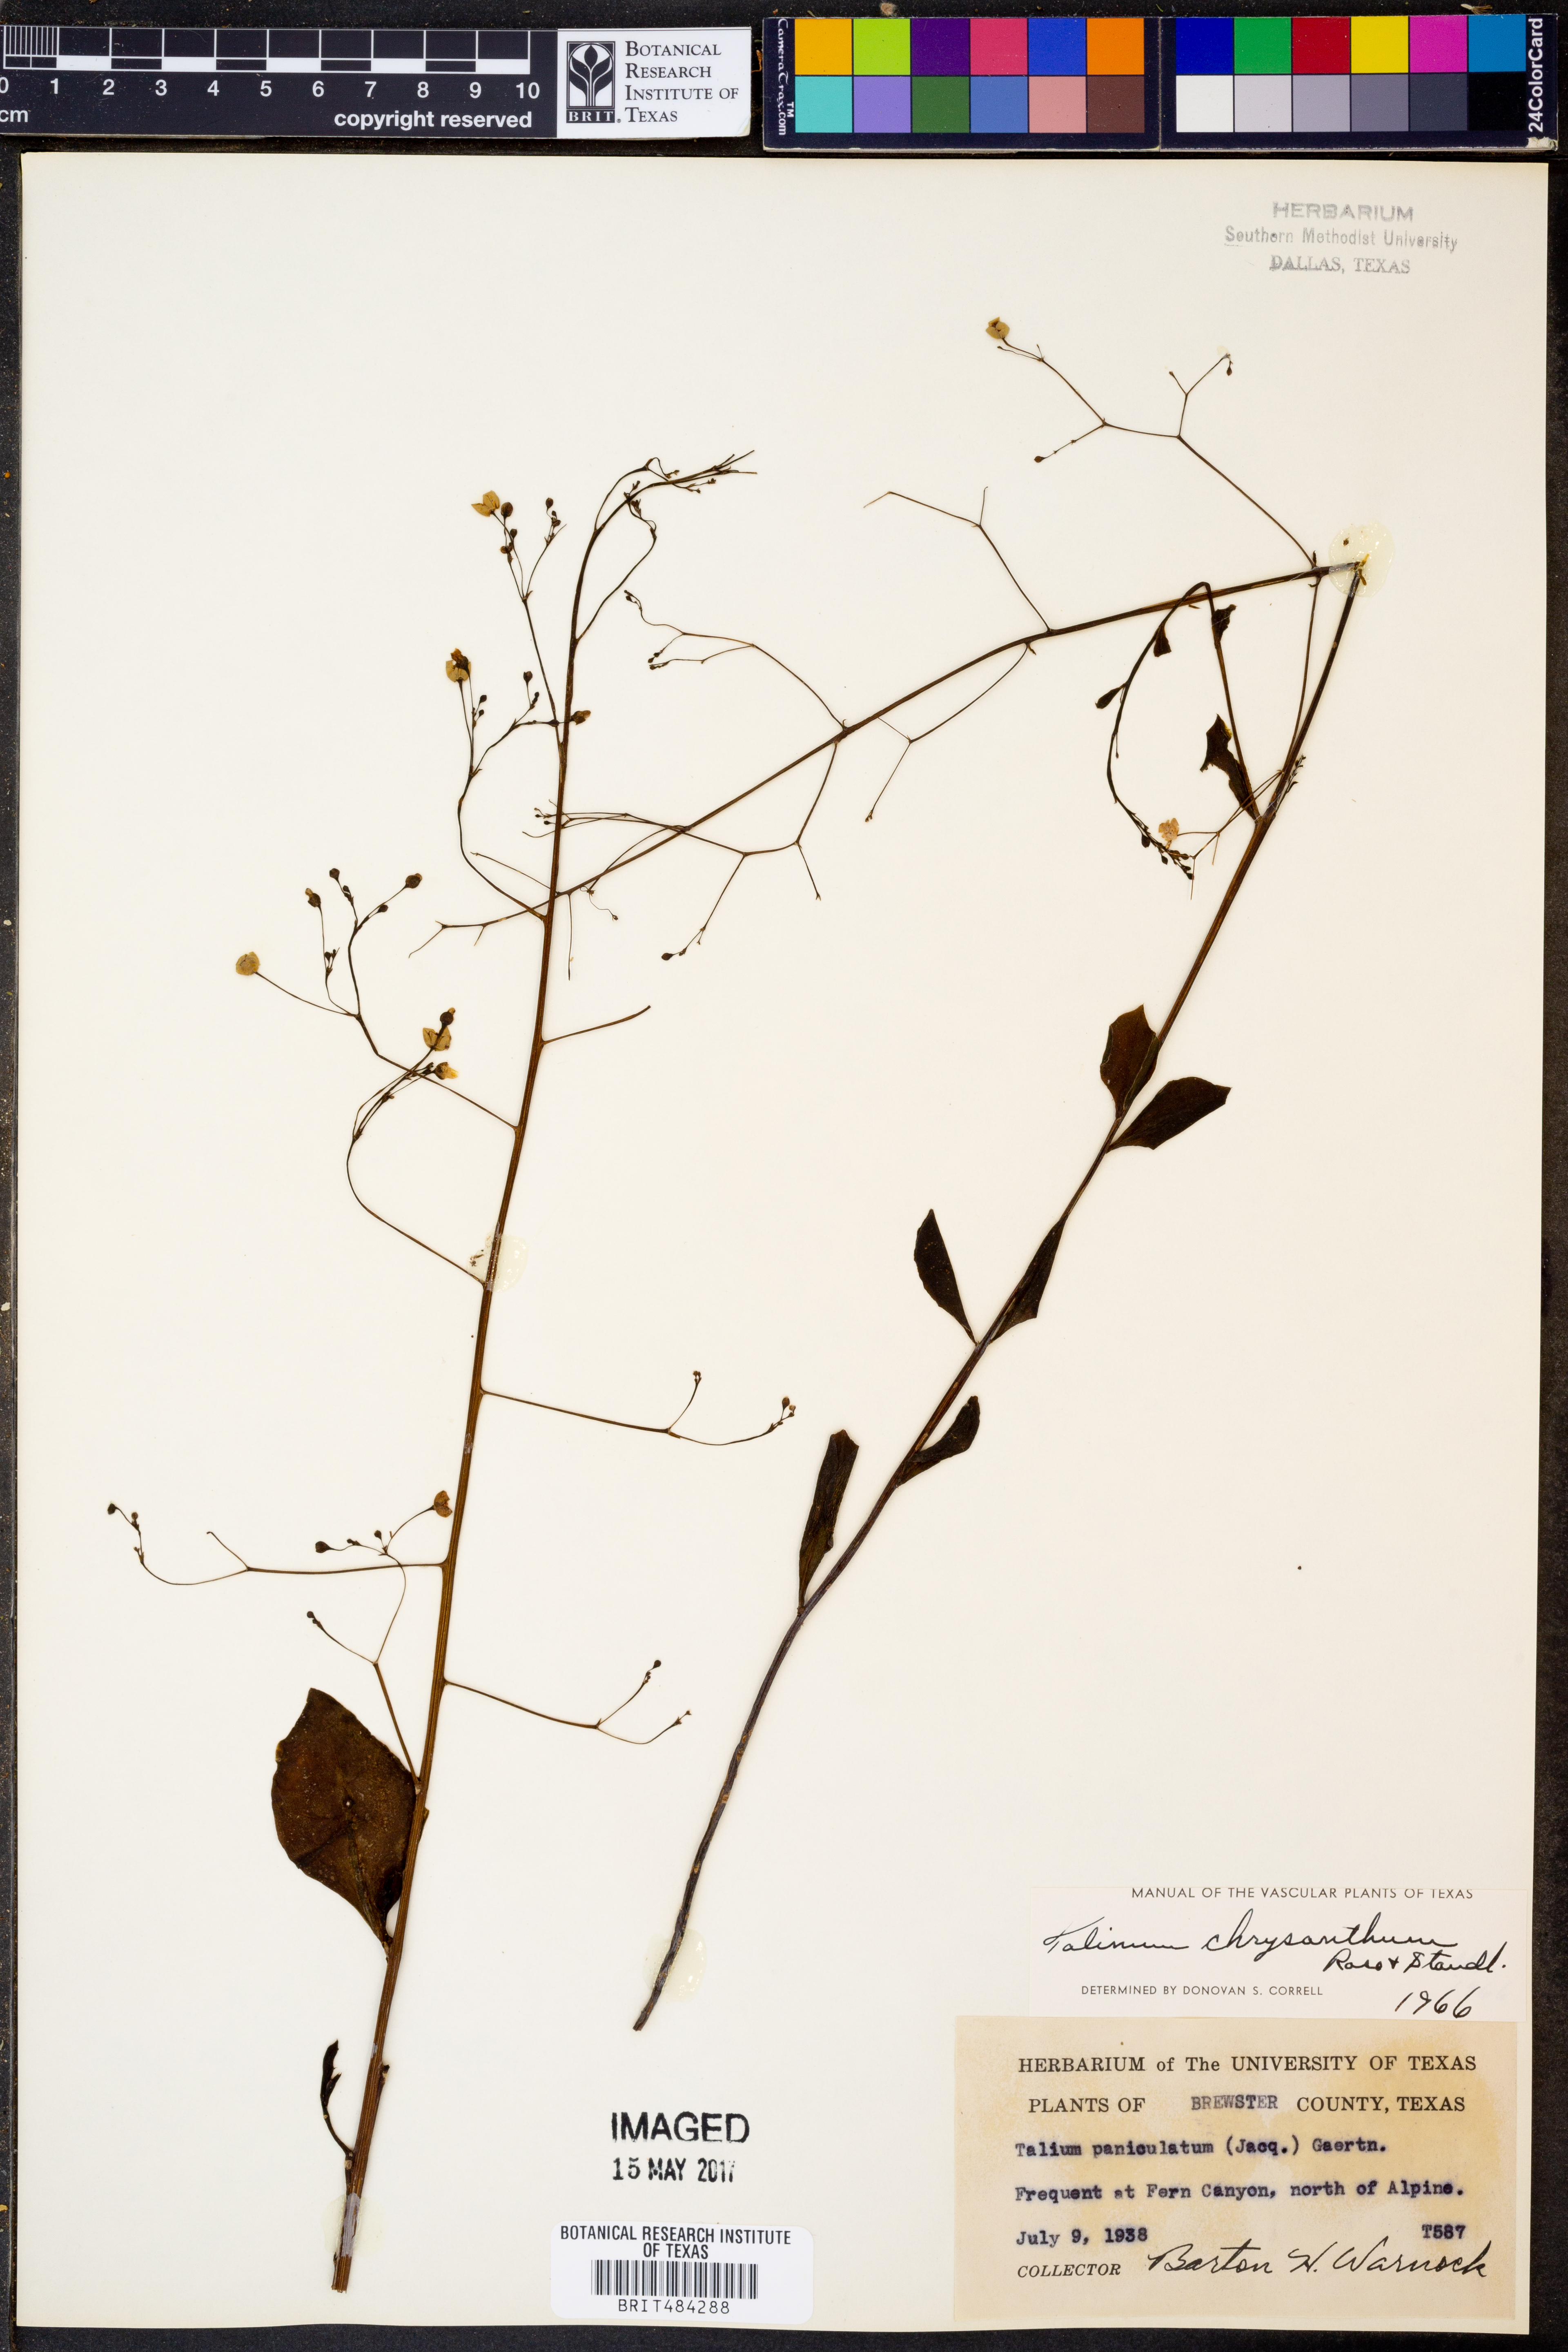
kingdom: Plantae
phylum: Tracheophyta
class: Magnoliopsida
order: Caryophyllales
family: Talinaceae
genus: Talinum
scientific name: Talinum paniculatum
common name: Jewels of opar
